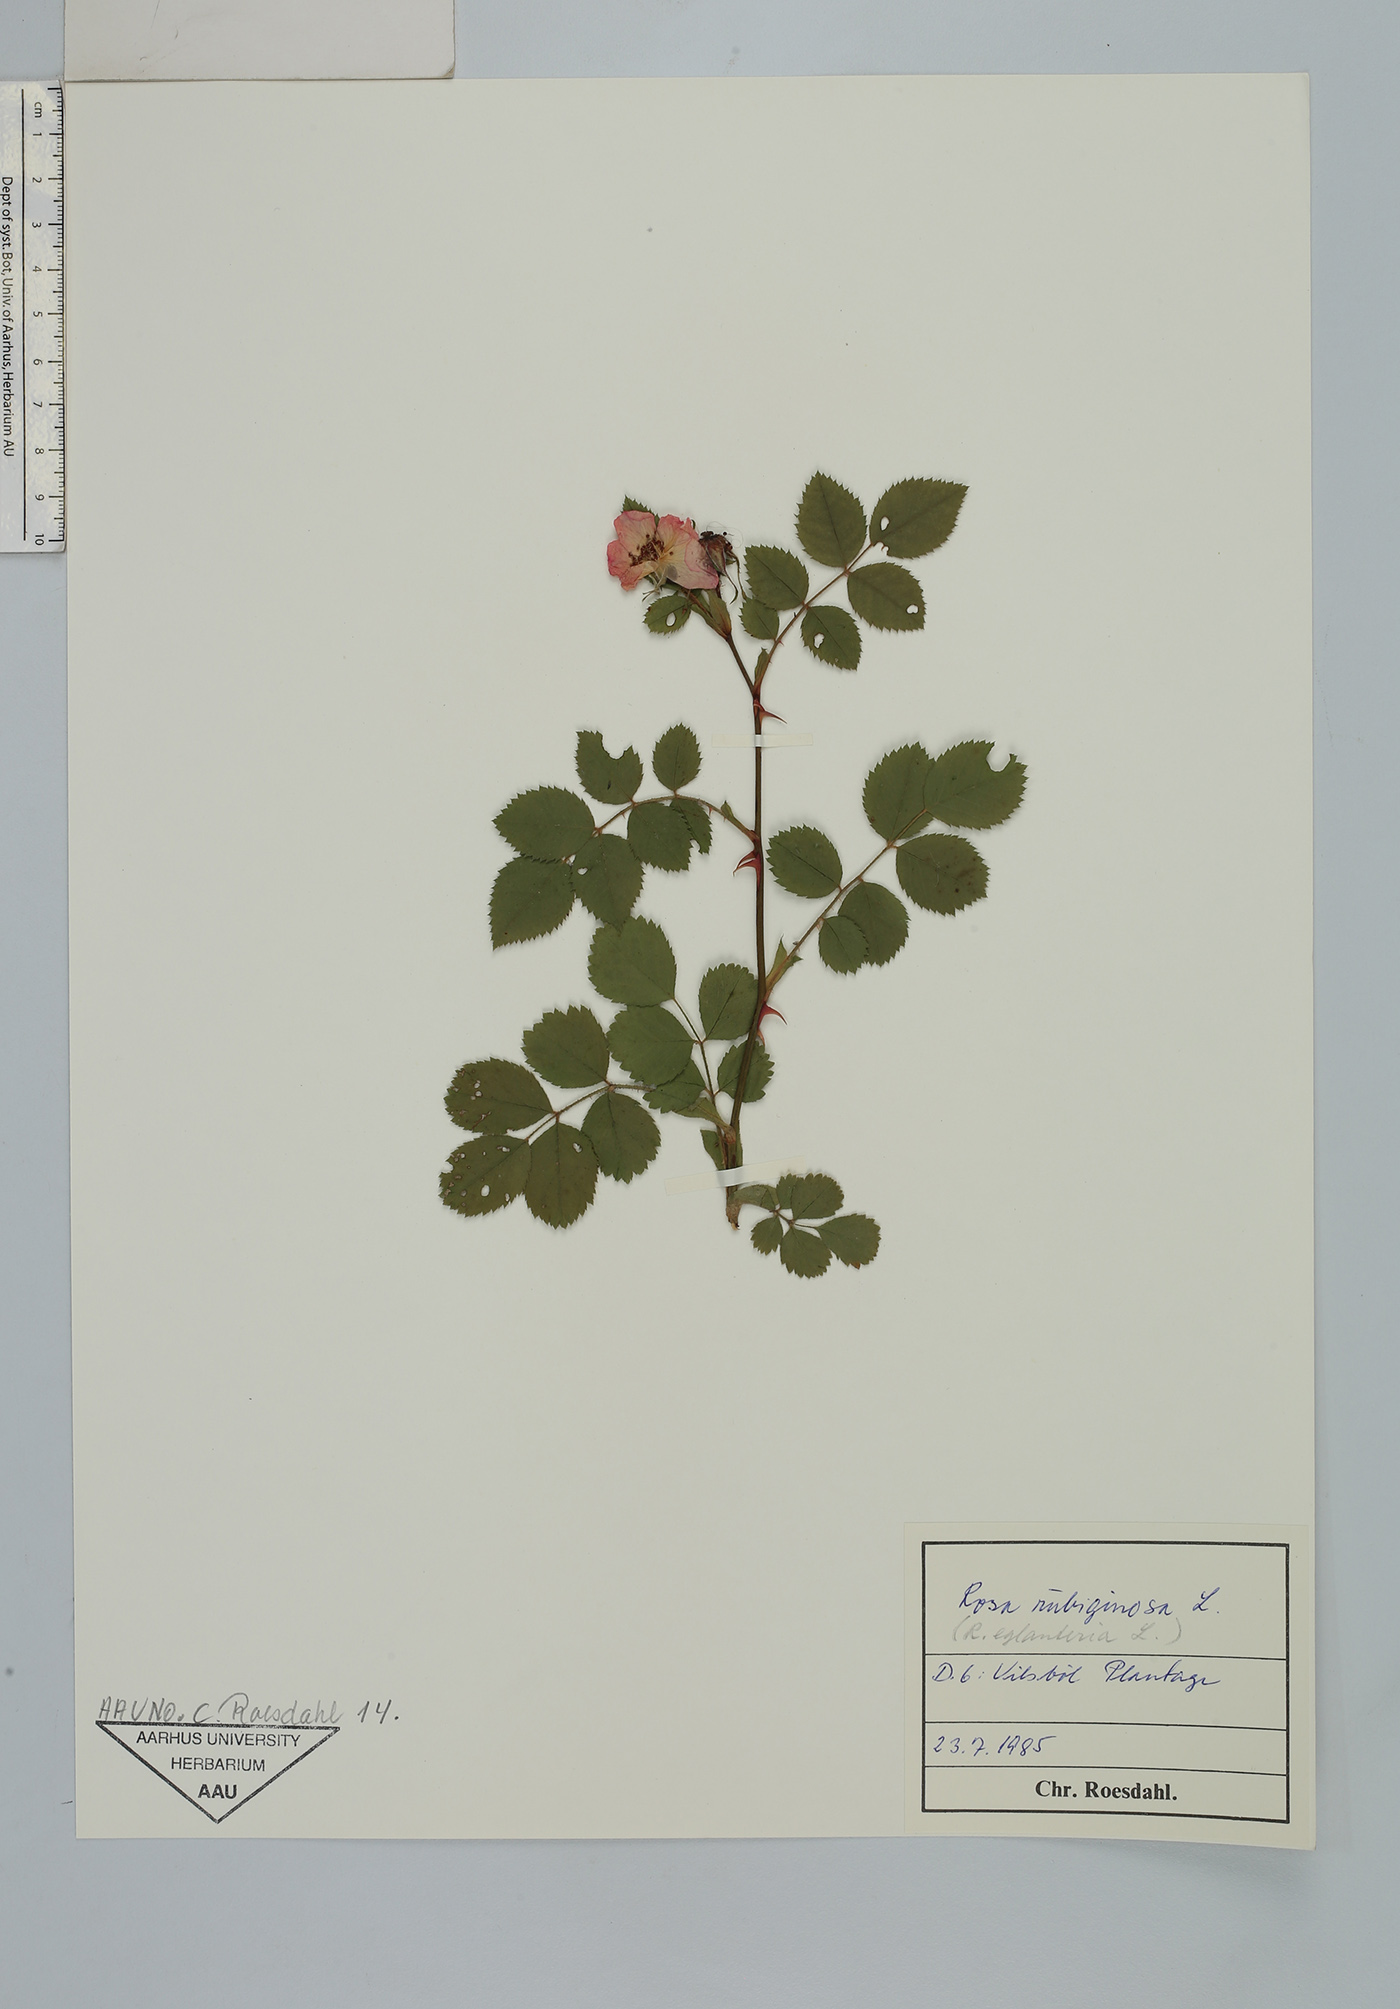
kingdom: Plantae
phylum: Tracheophyta
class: Magnoliopsida
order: Rosales
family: Rosaceae
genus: Rosa
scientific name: Rosa rubiginosa
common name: Sweet-briar
